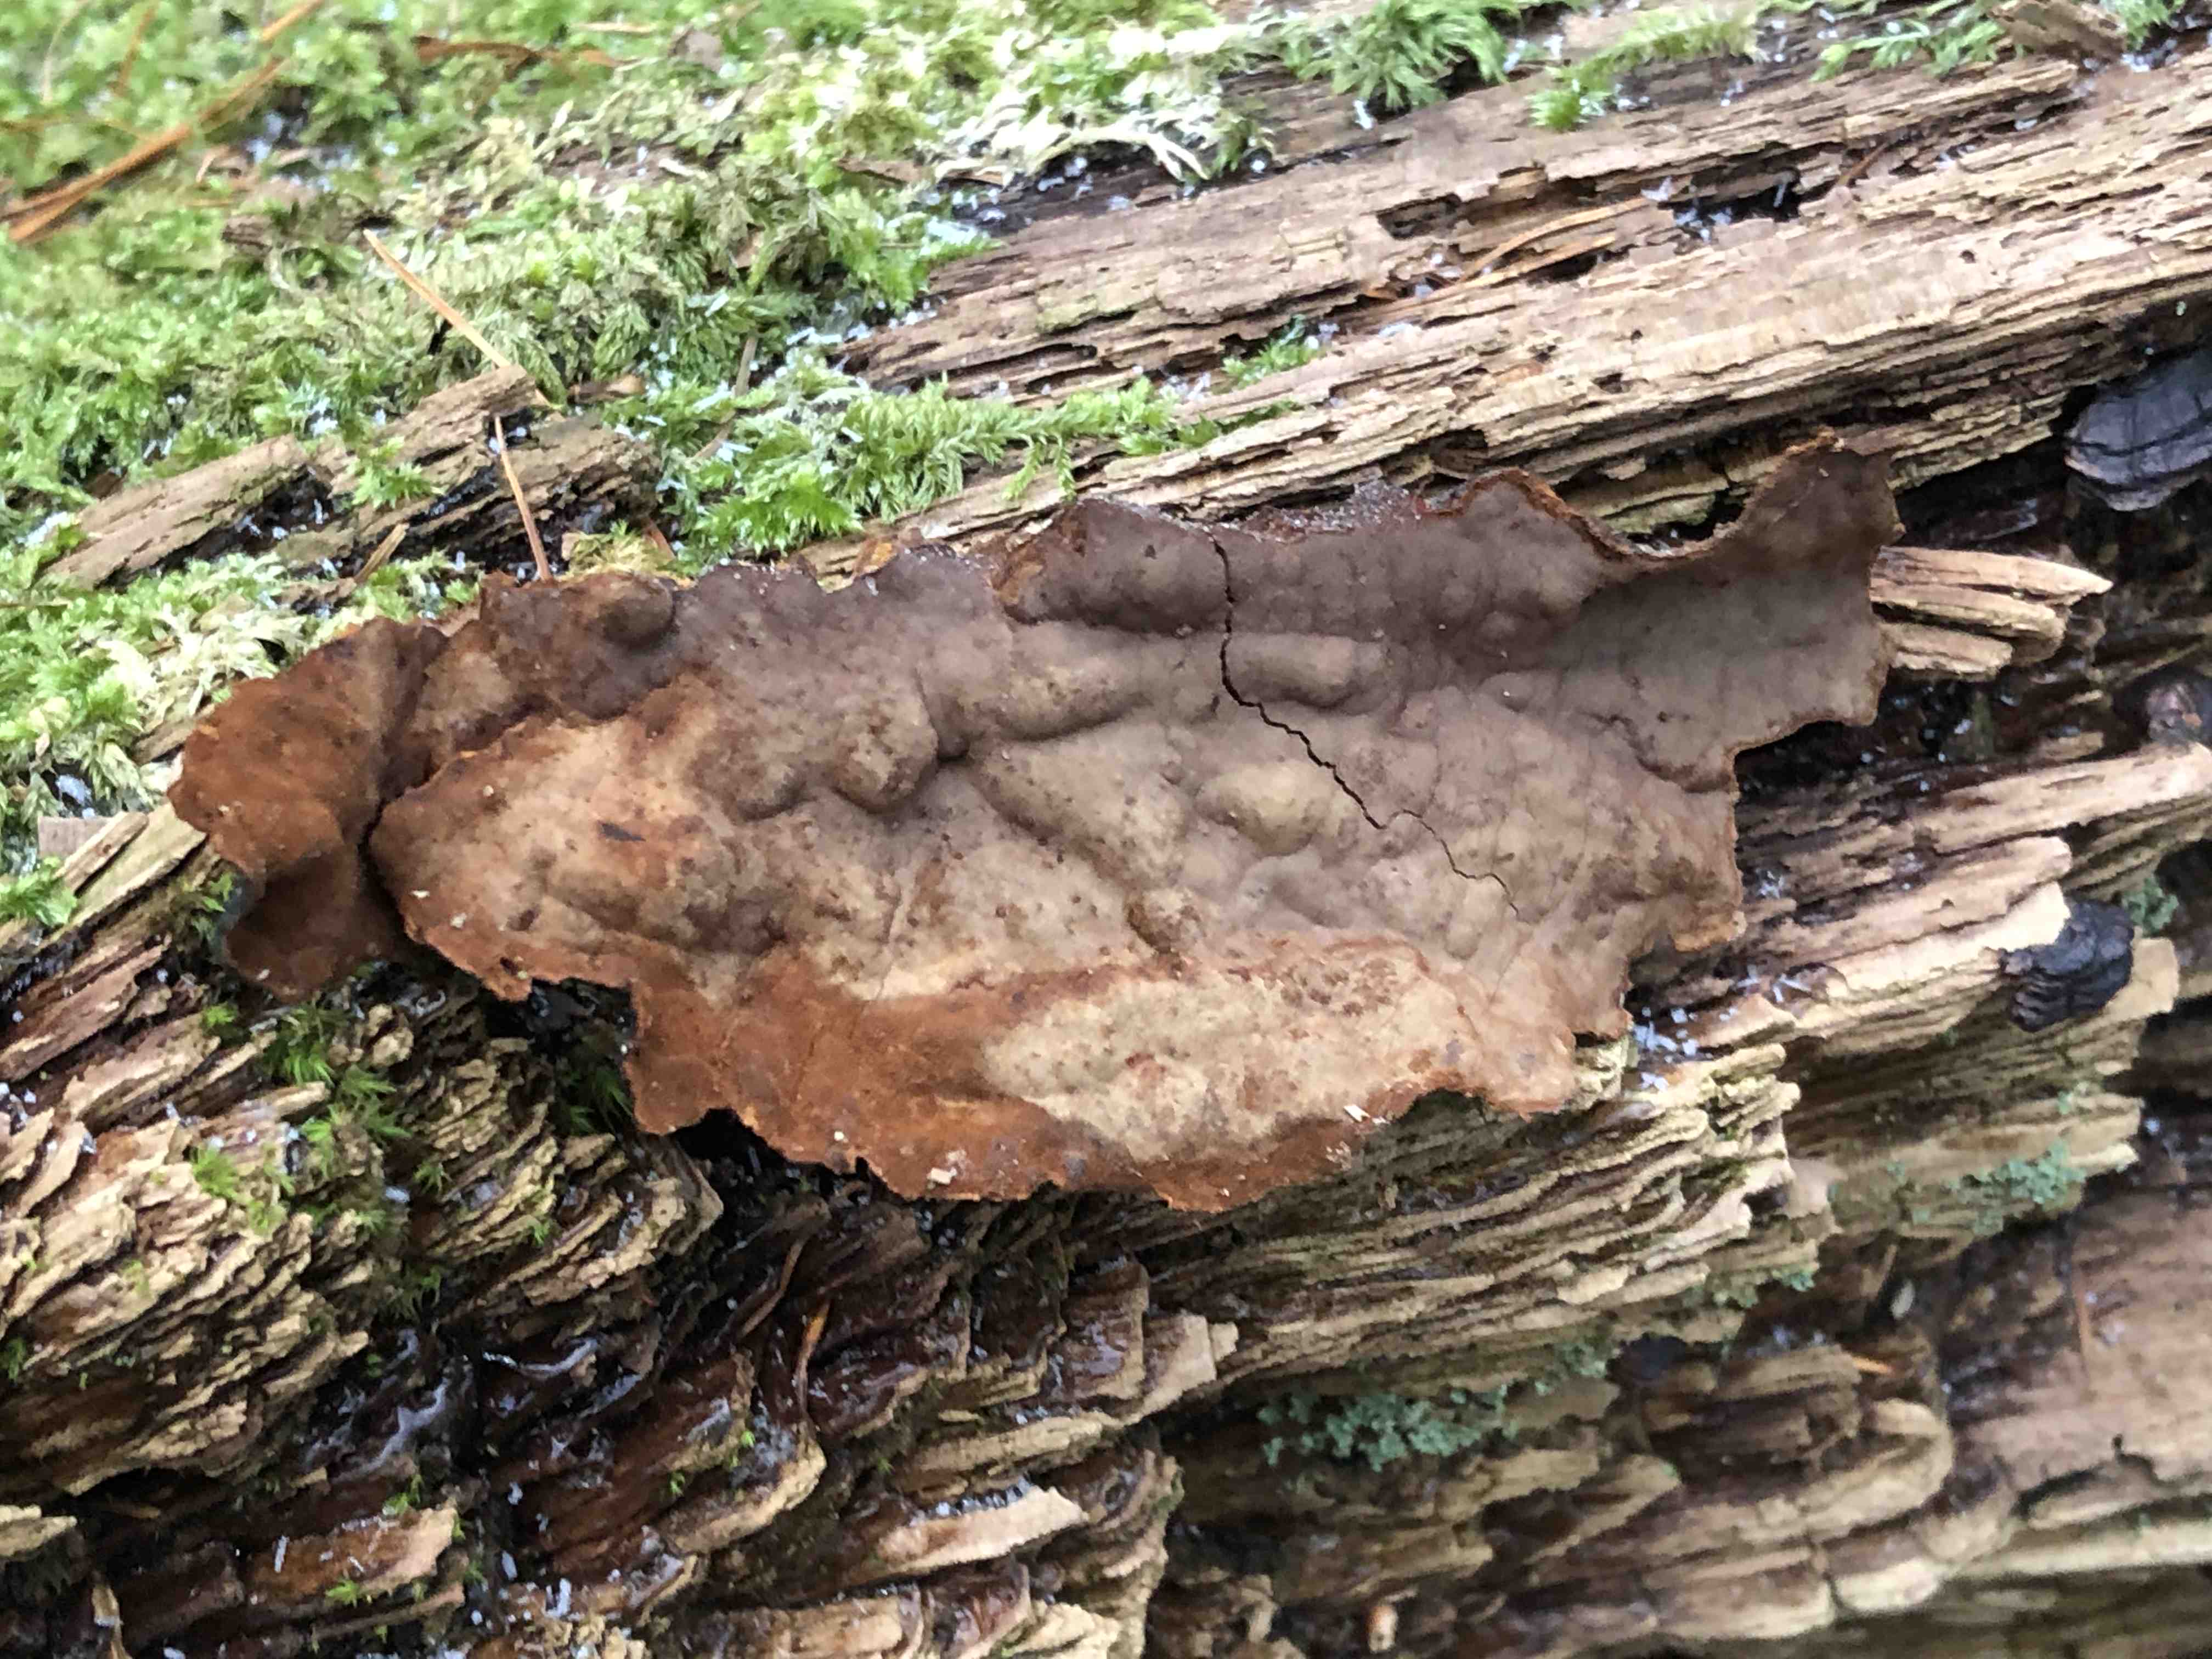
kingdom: Fungi
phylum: Basidiomycota
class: Agaricomycetes
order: Hymenochaetales
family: Hymenochaetaceae
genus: Hymenochaete
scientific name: Hymenochaete rubiginosa
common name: stiv ruslædersvamp
